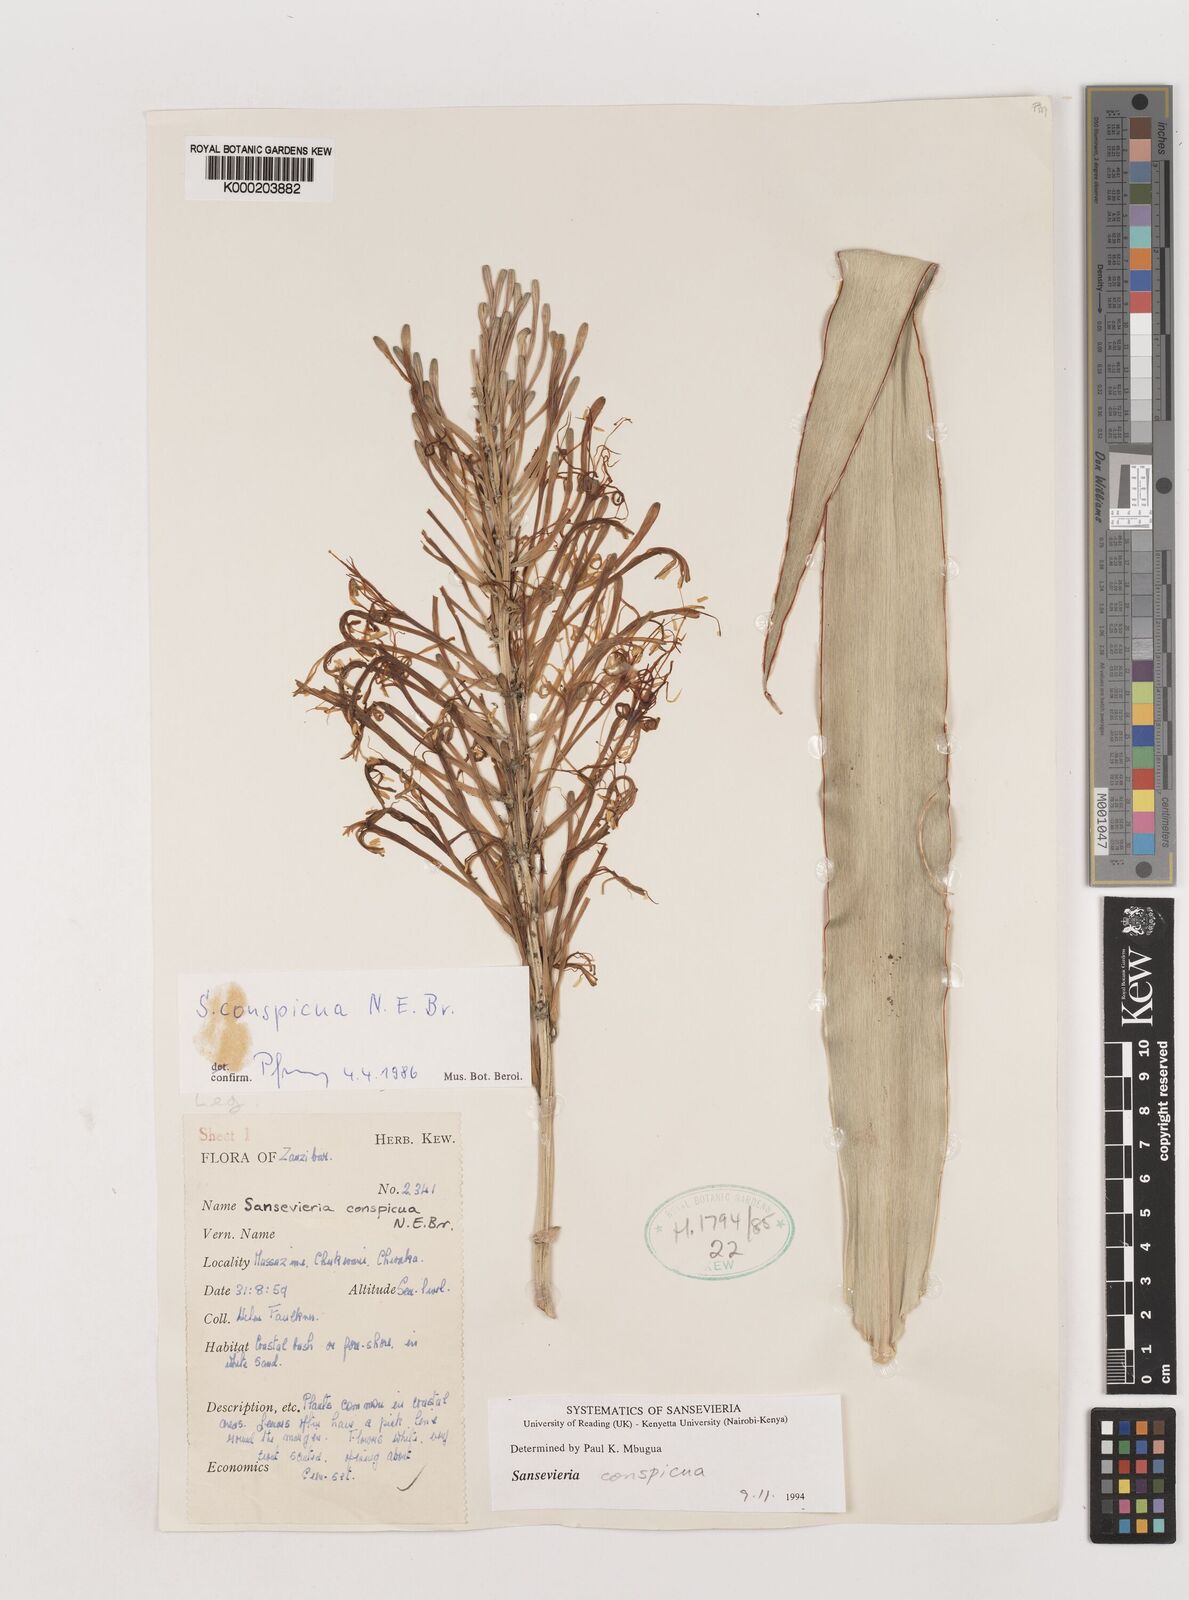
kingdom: Plantae
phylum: Tracheophyta
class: Liliopsida
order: Asparagales
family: Asparagaceae
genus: Dracaena
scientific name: Dracaena conspicua
